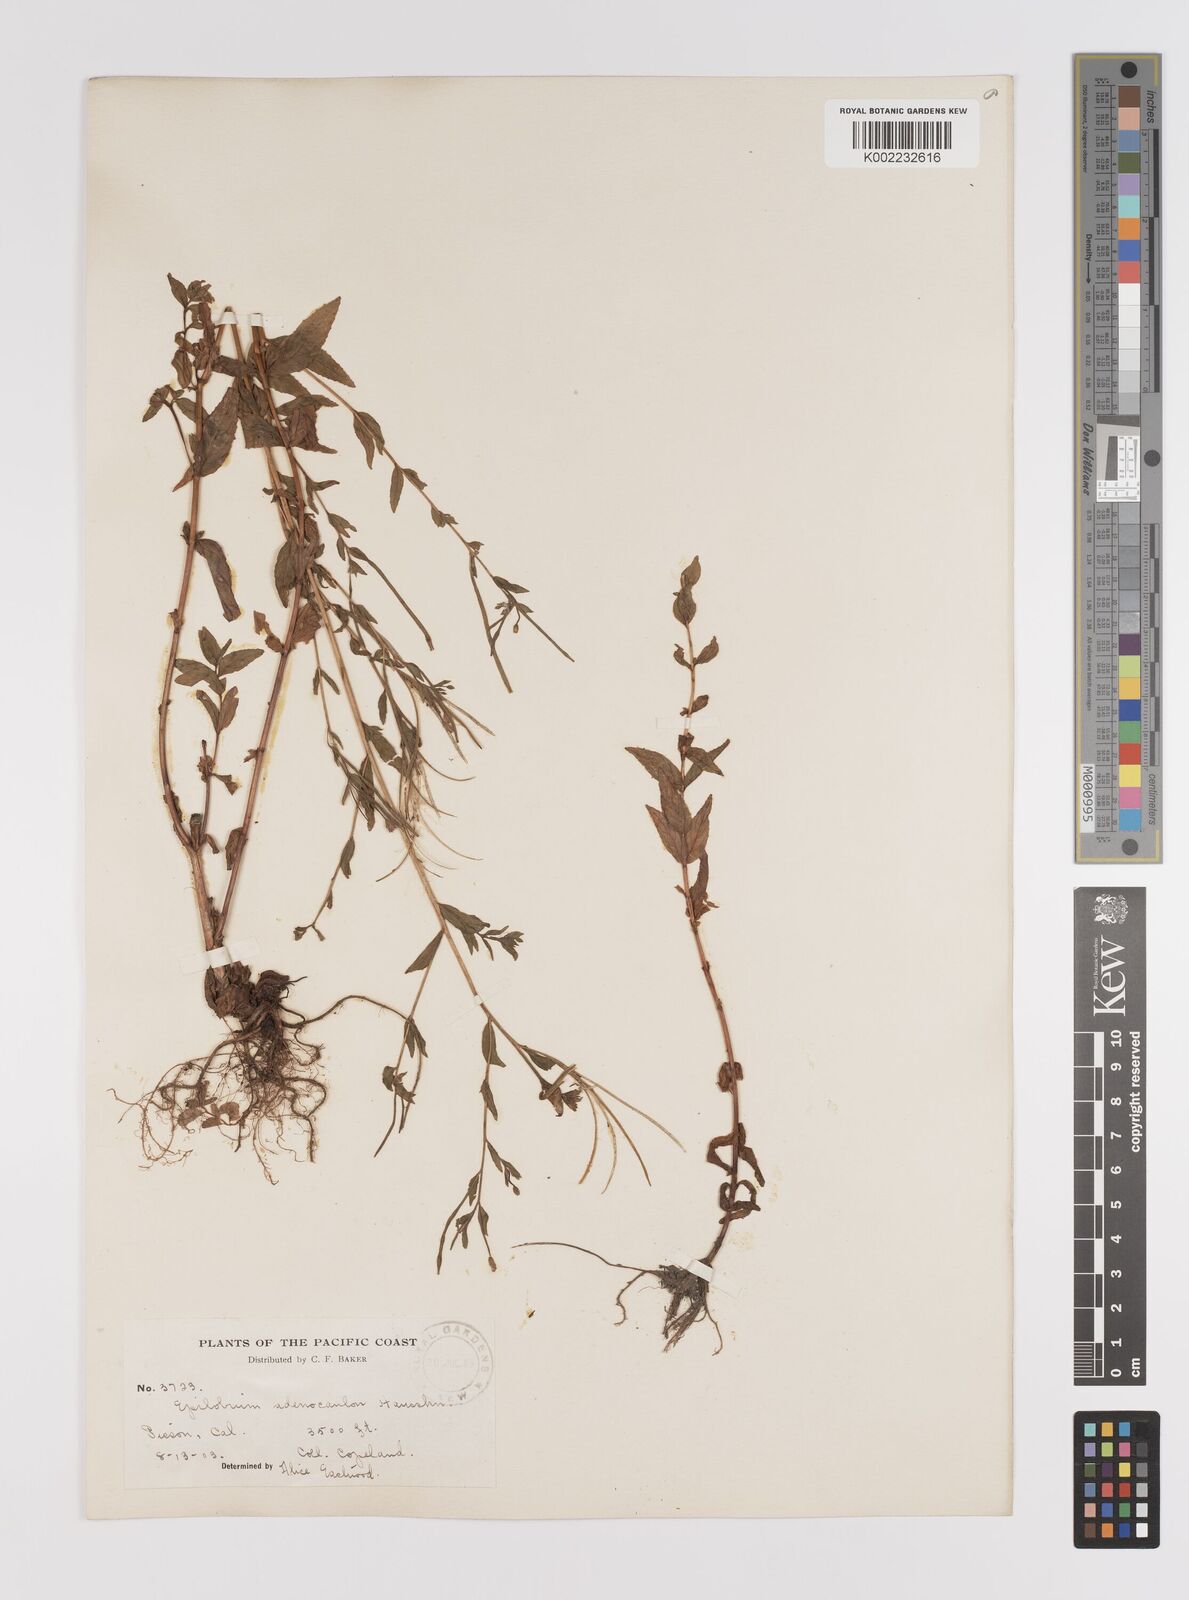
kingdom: Plantae
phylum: Tracheophyta
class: Magnoliopsida
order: Myrtales
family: Onagraceae
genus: Epilobium
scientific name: Epilobium ciliatum
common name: American willowherb
